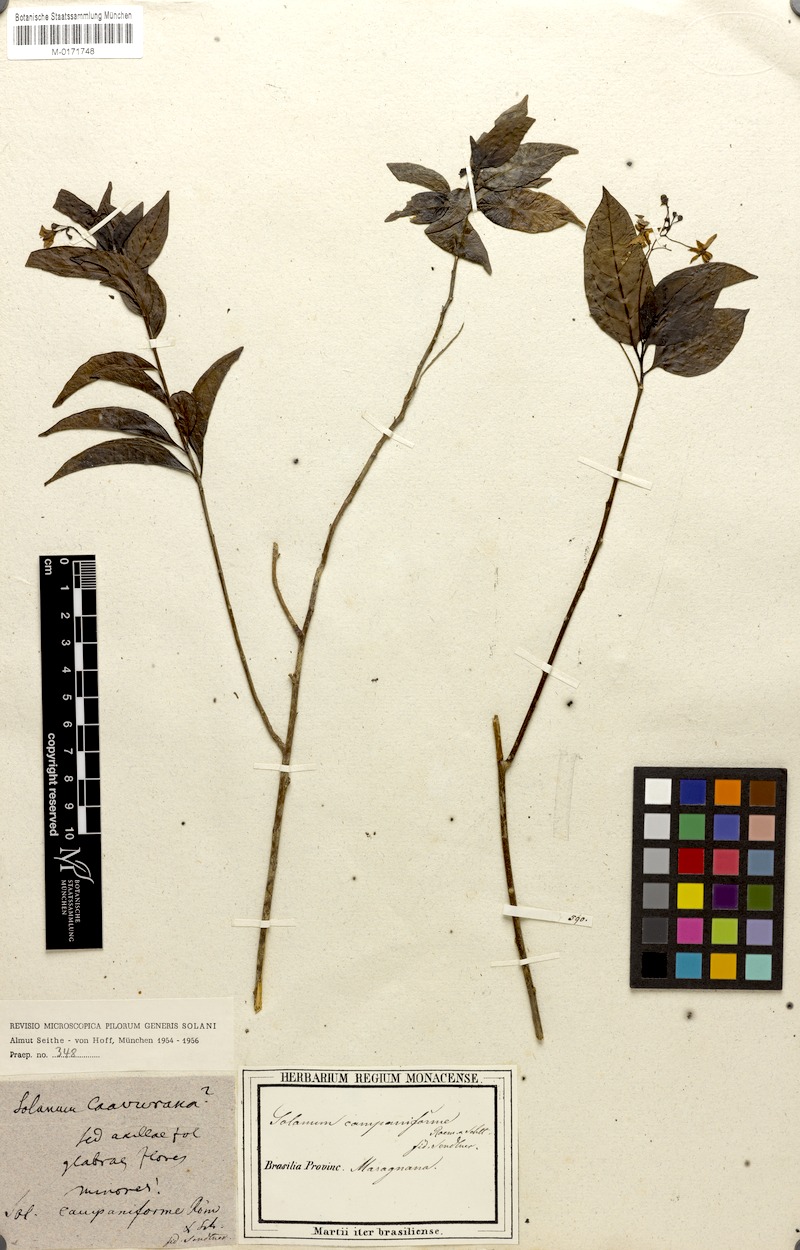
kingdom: Plantae
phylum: Tracheophyta
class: Magnoliopsida
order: Solanales
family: Solanaceae
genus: Solanum
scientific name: Solanum campaniforme
